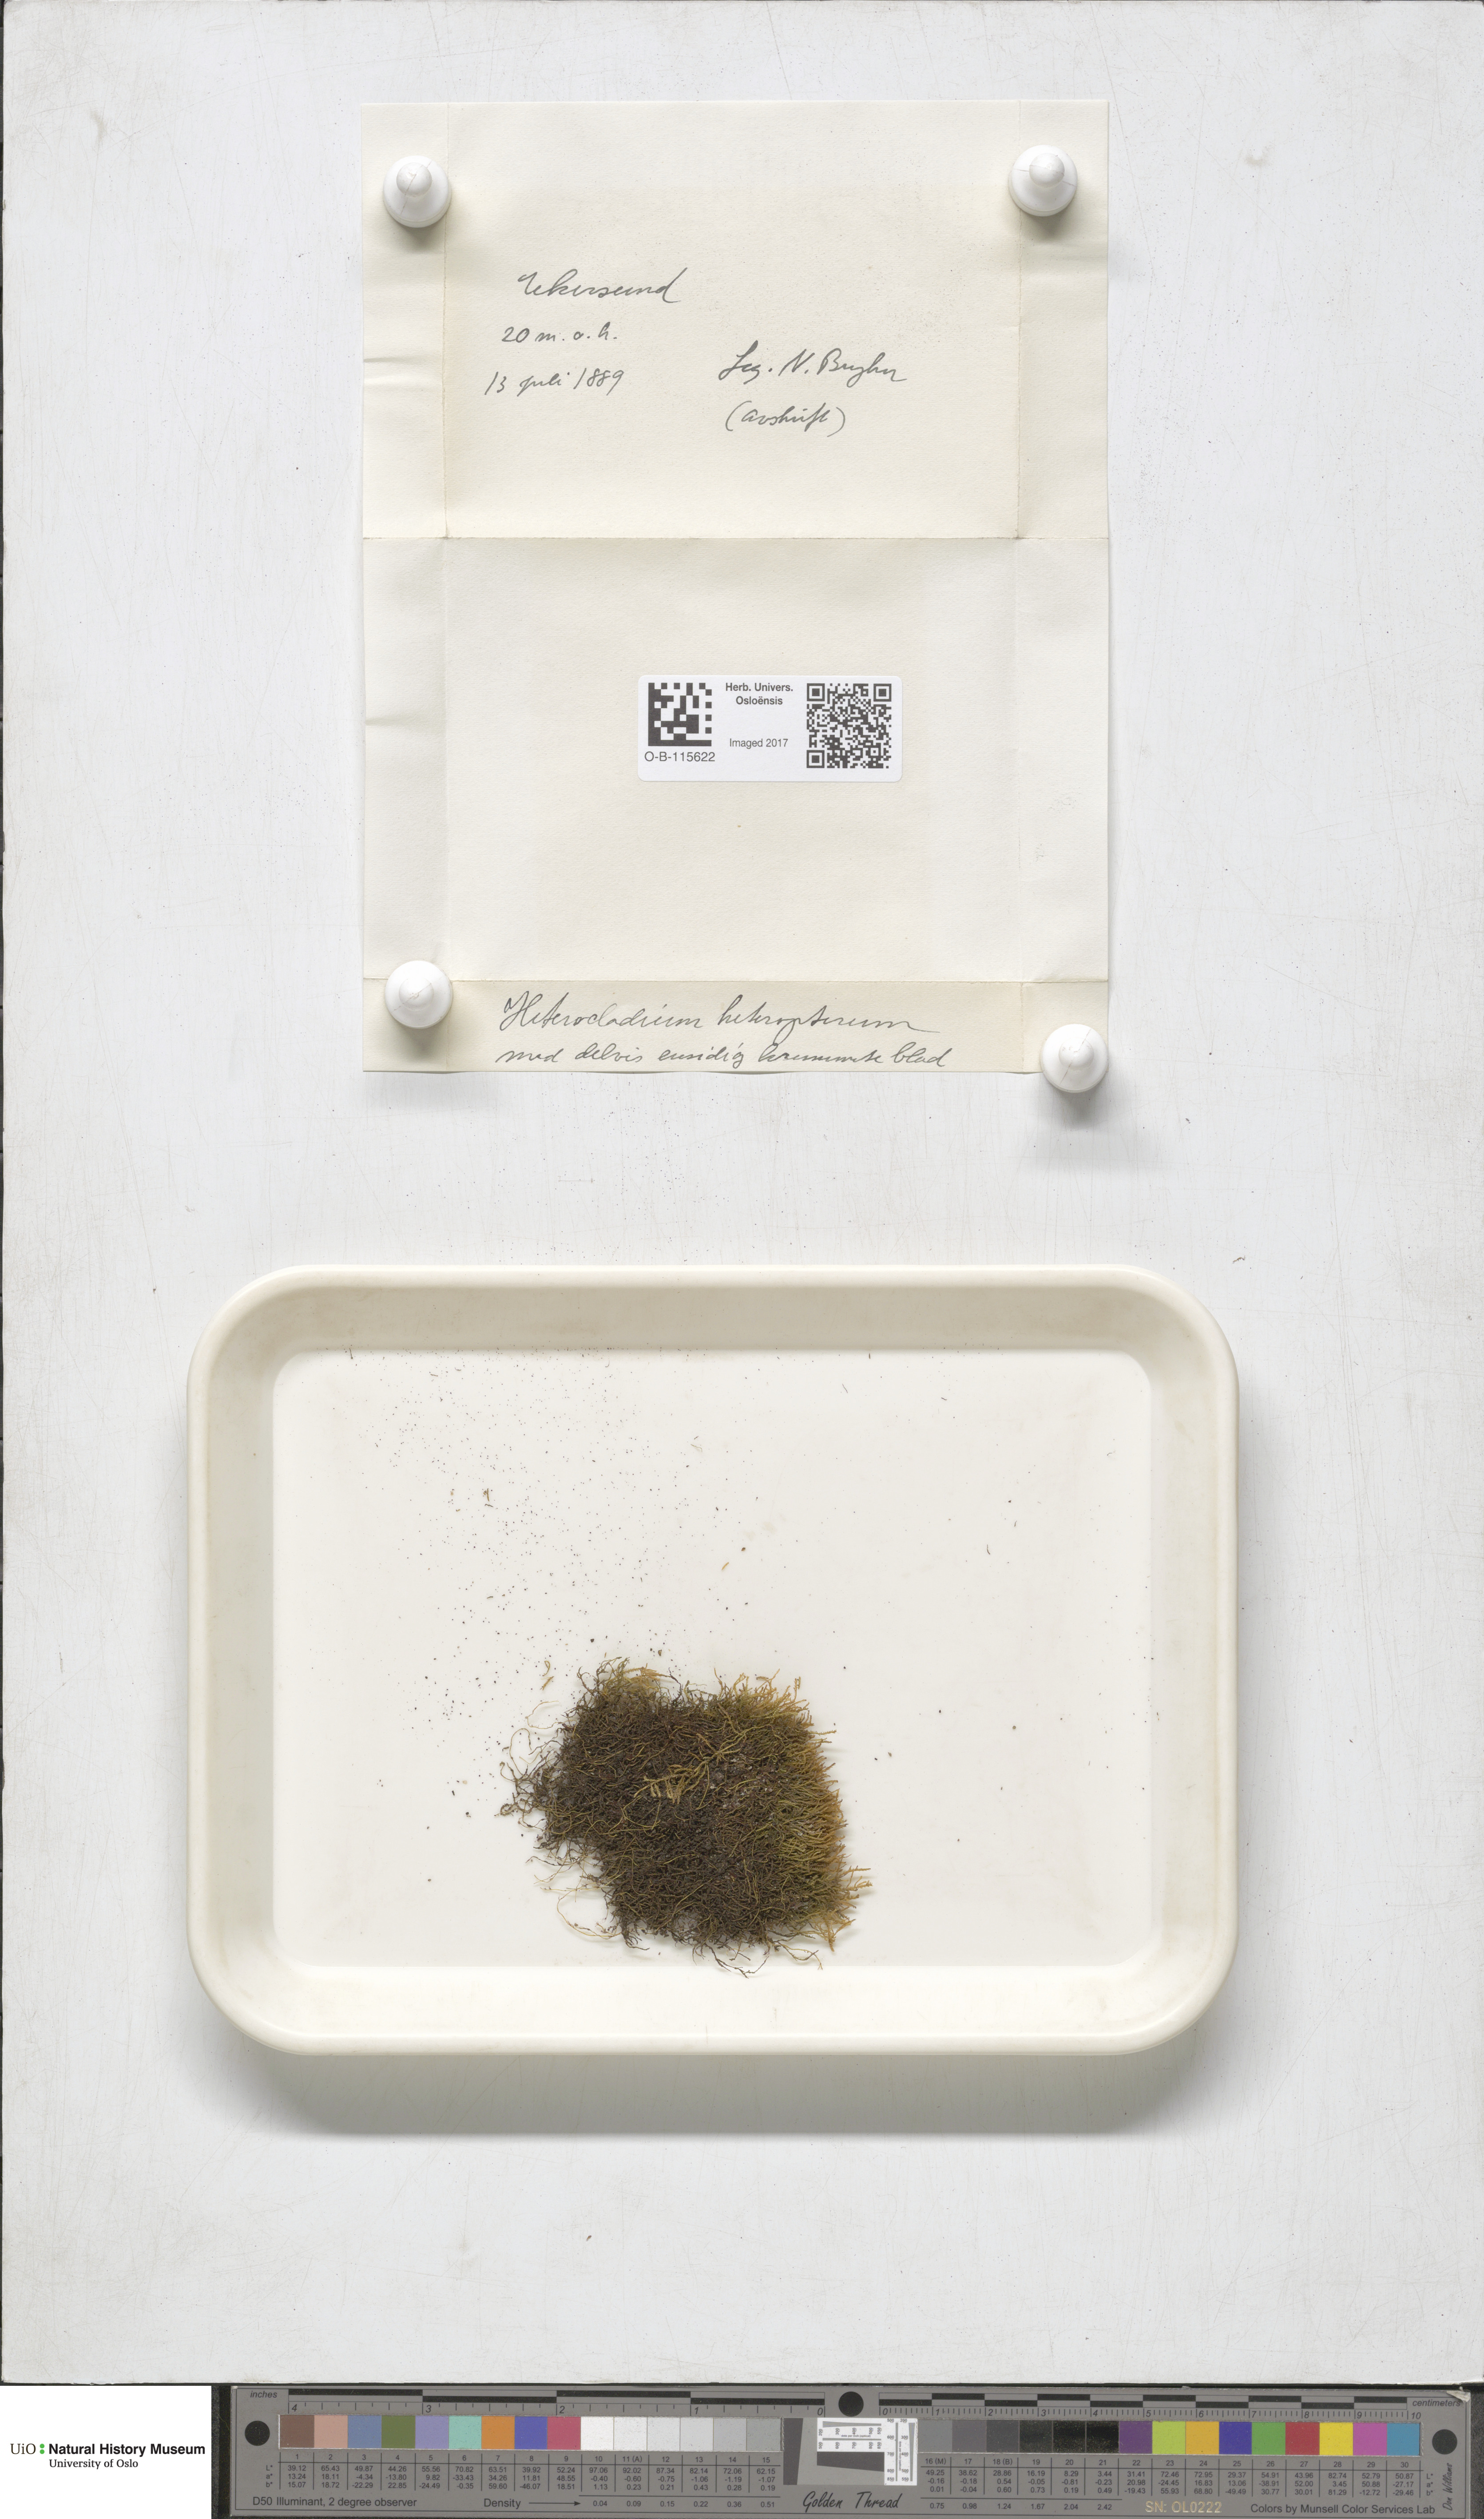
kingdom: Plantae
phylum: Bryophyta
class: Bryopsida
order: Hypnales
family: Lembophyllaceae
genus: Heterocladium
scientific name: Heterocladium heteropterum
